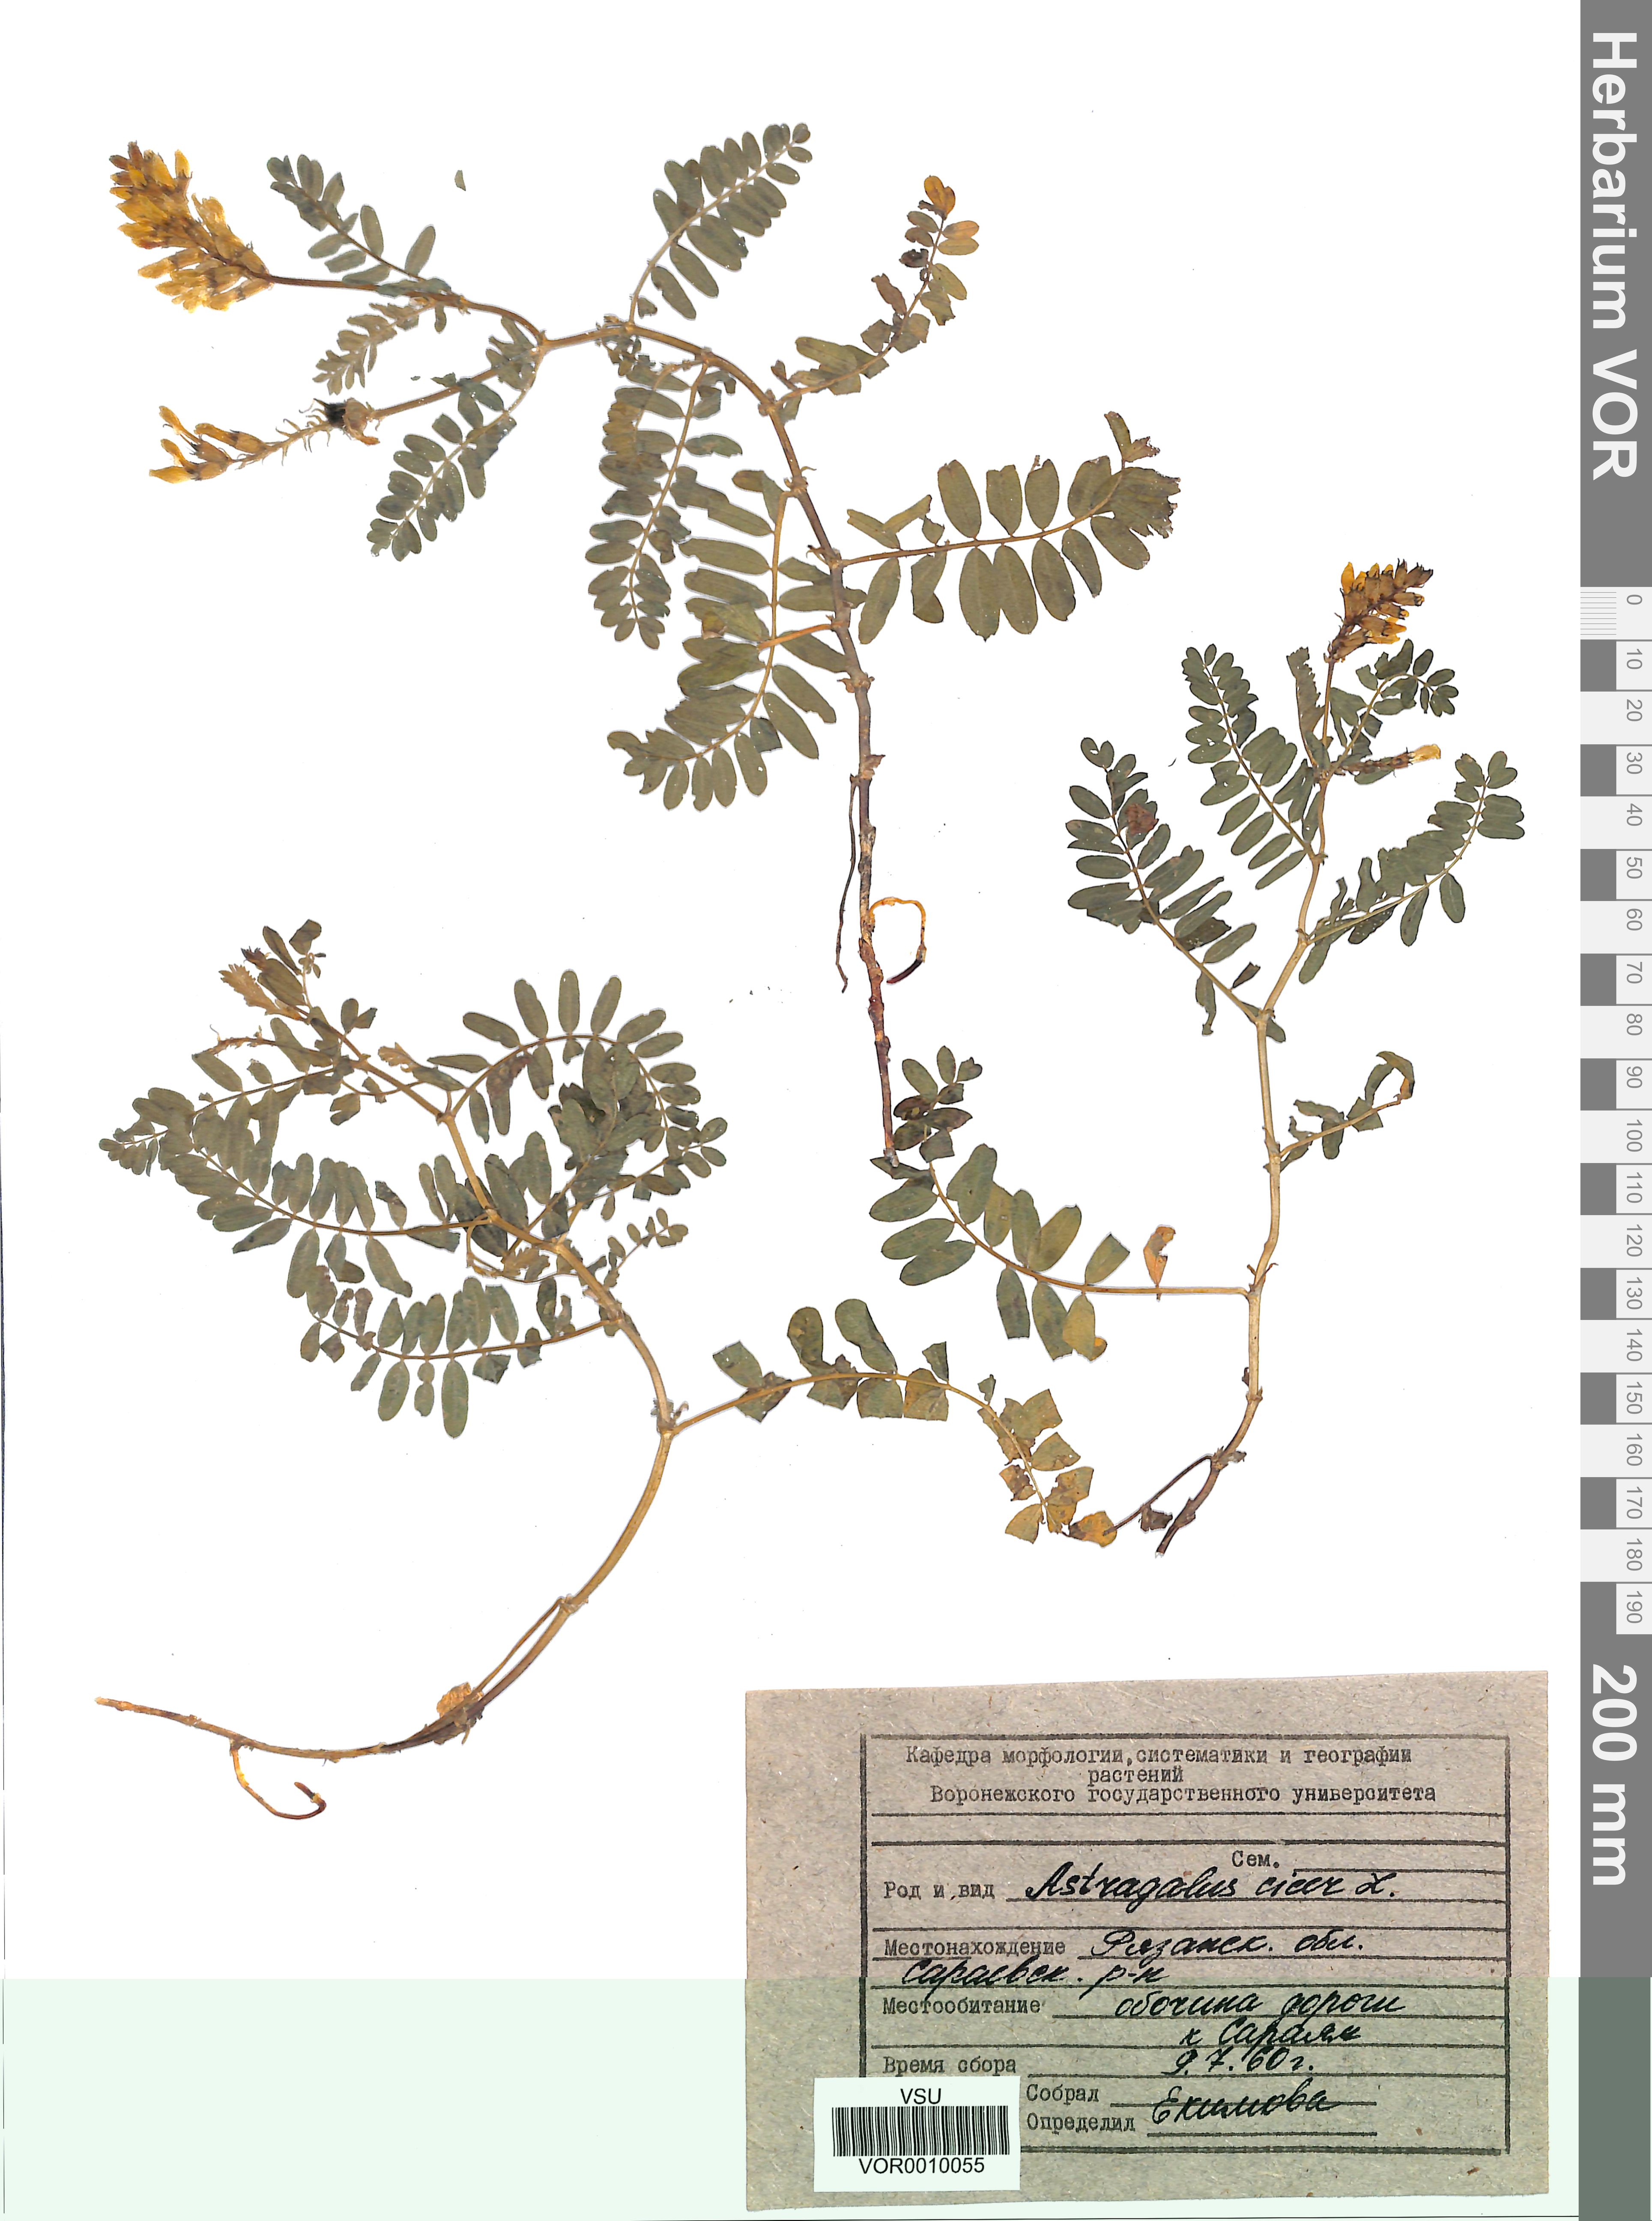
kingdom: Plantae
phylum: Tracheophyta
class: Magnoliopsida
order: Fabales
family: Fabaceae
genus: Astragalus
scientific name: Astragalus cicer
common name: Chick-pea milk-vetch
